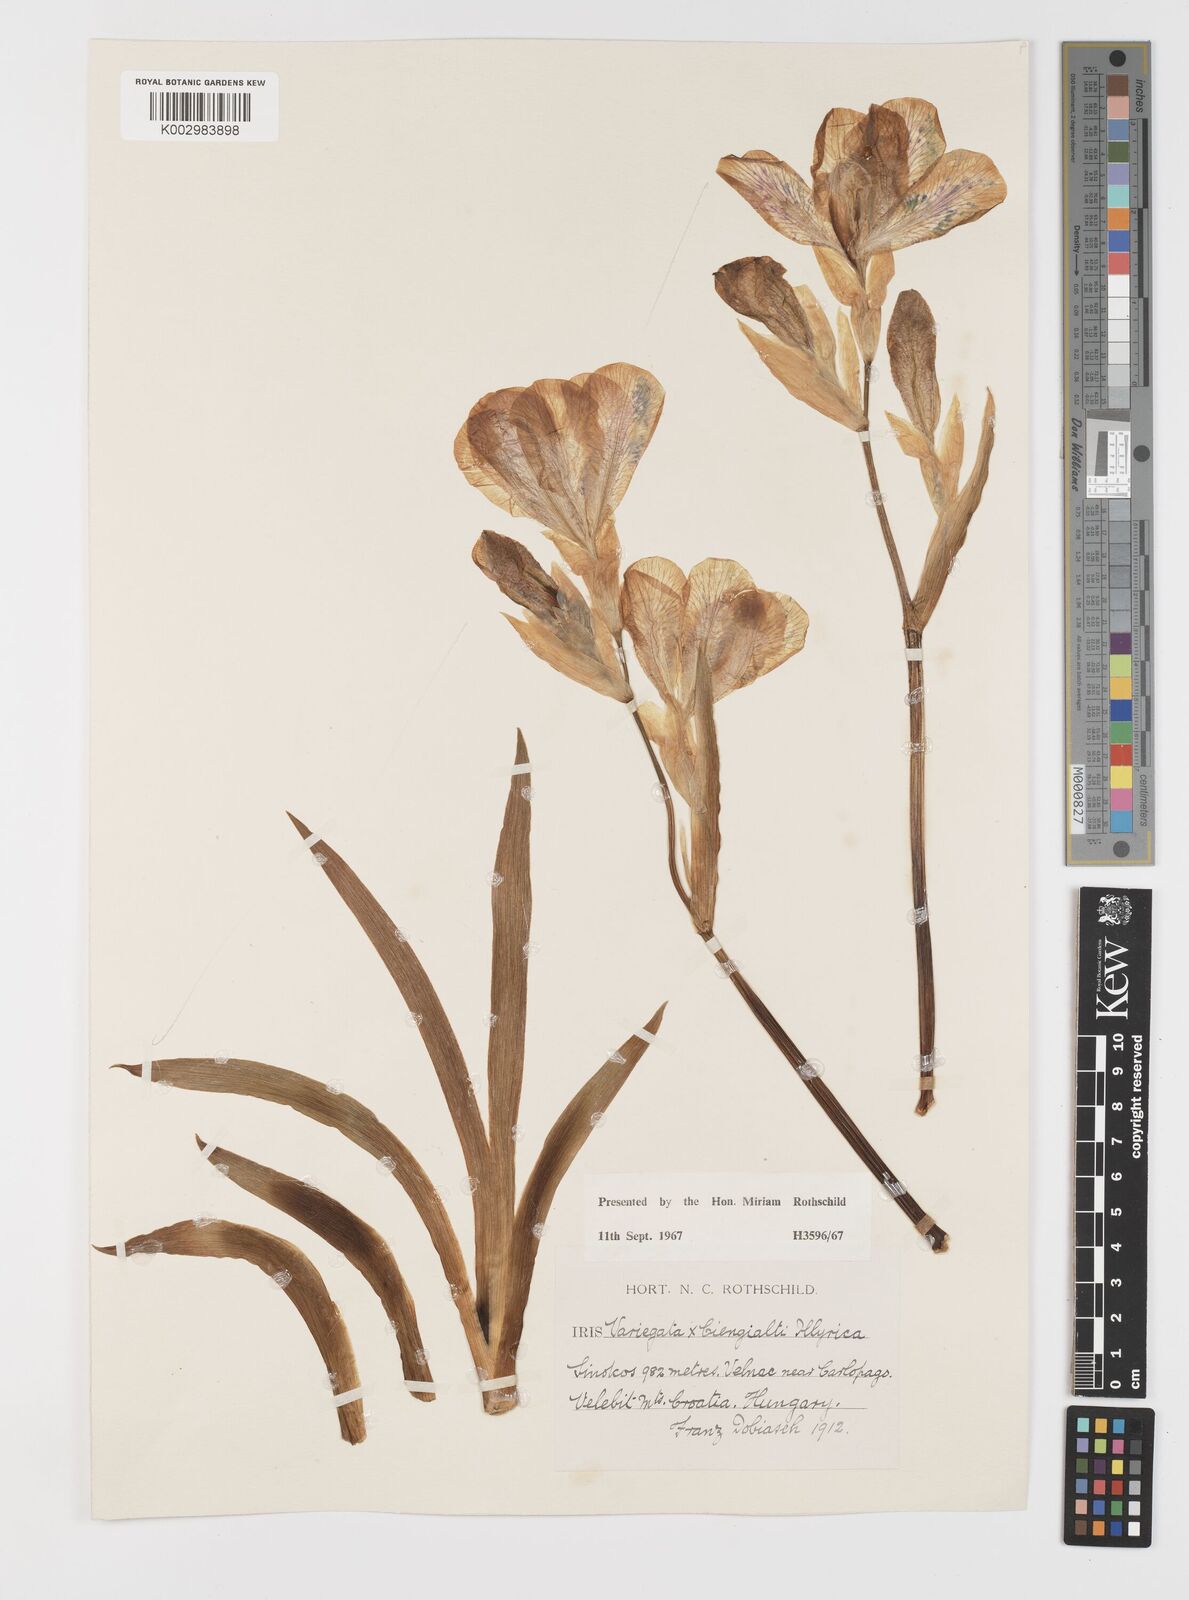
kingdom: Plantae
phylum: Tracheophyta
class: Liliopsida
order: Asparagales
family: Iridaceae
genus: Iris
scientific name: Iris germanica
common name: German iris
